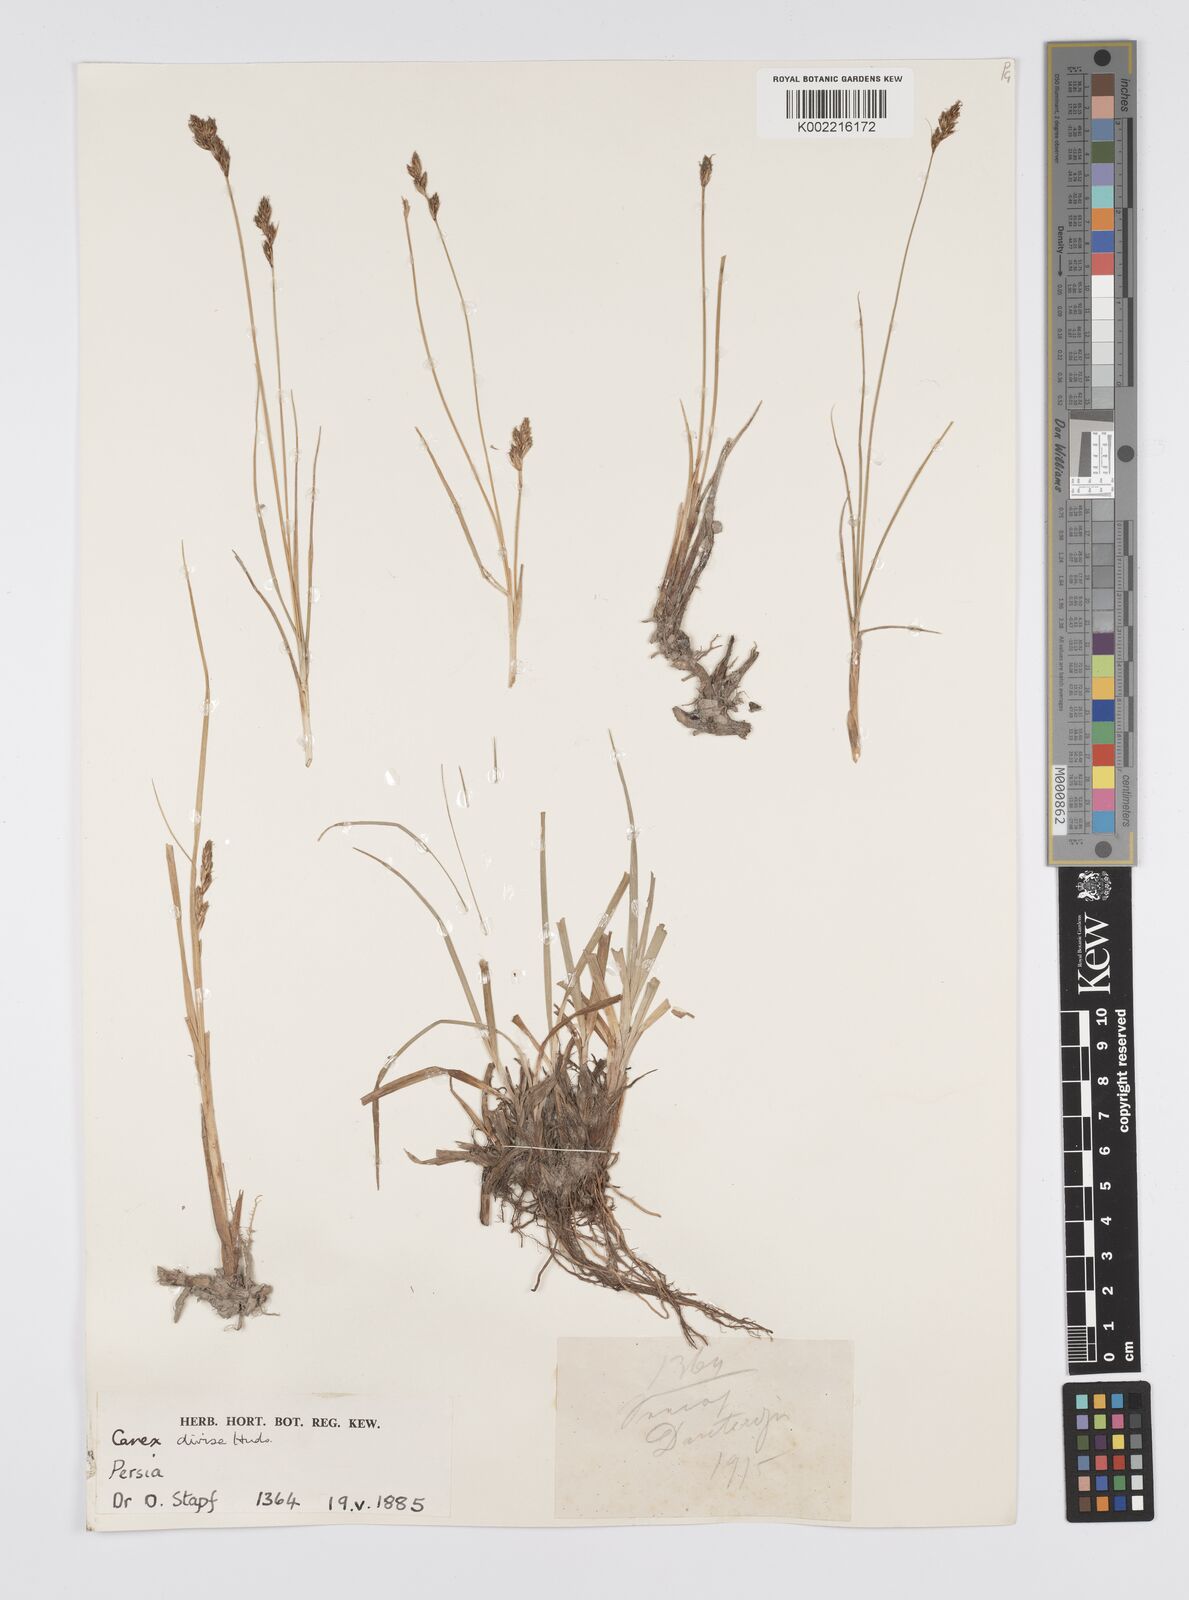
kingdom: Plantae
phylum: Tracheophyta
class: Liliopsida
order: Poales
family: Cyperaceae
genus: Carex
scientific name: Carex divisa
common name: Divided sedge
